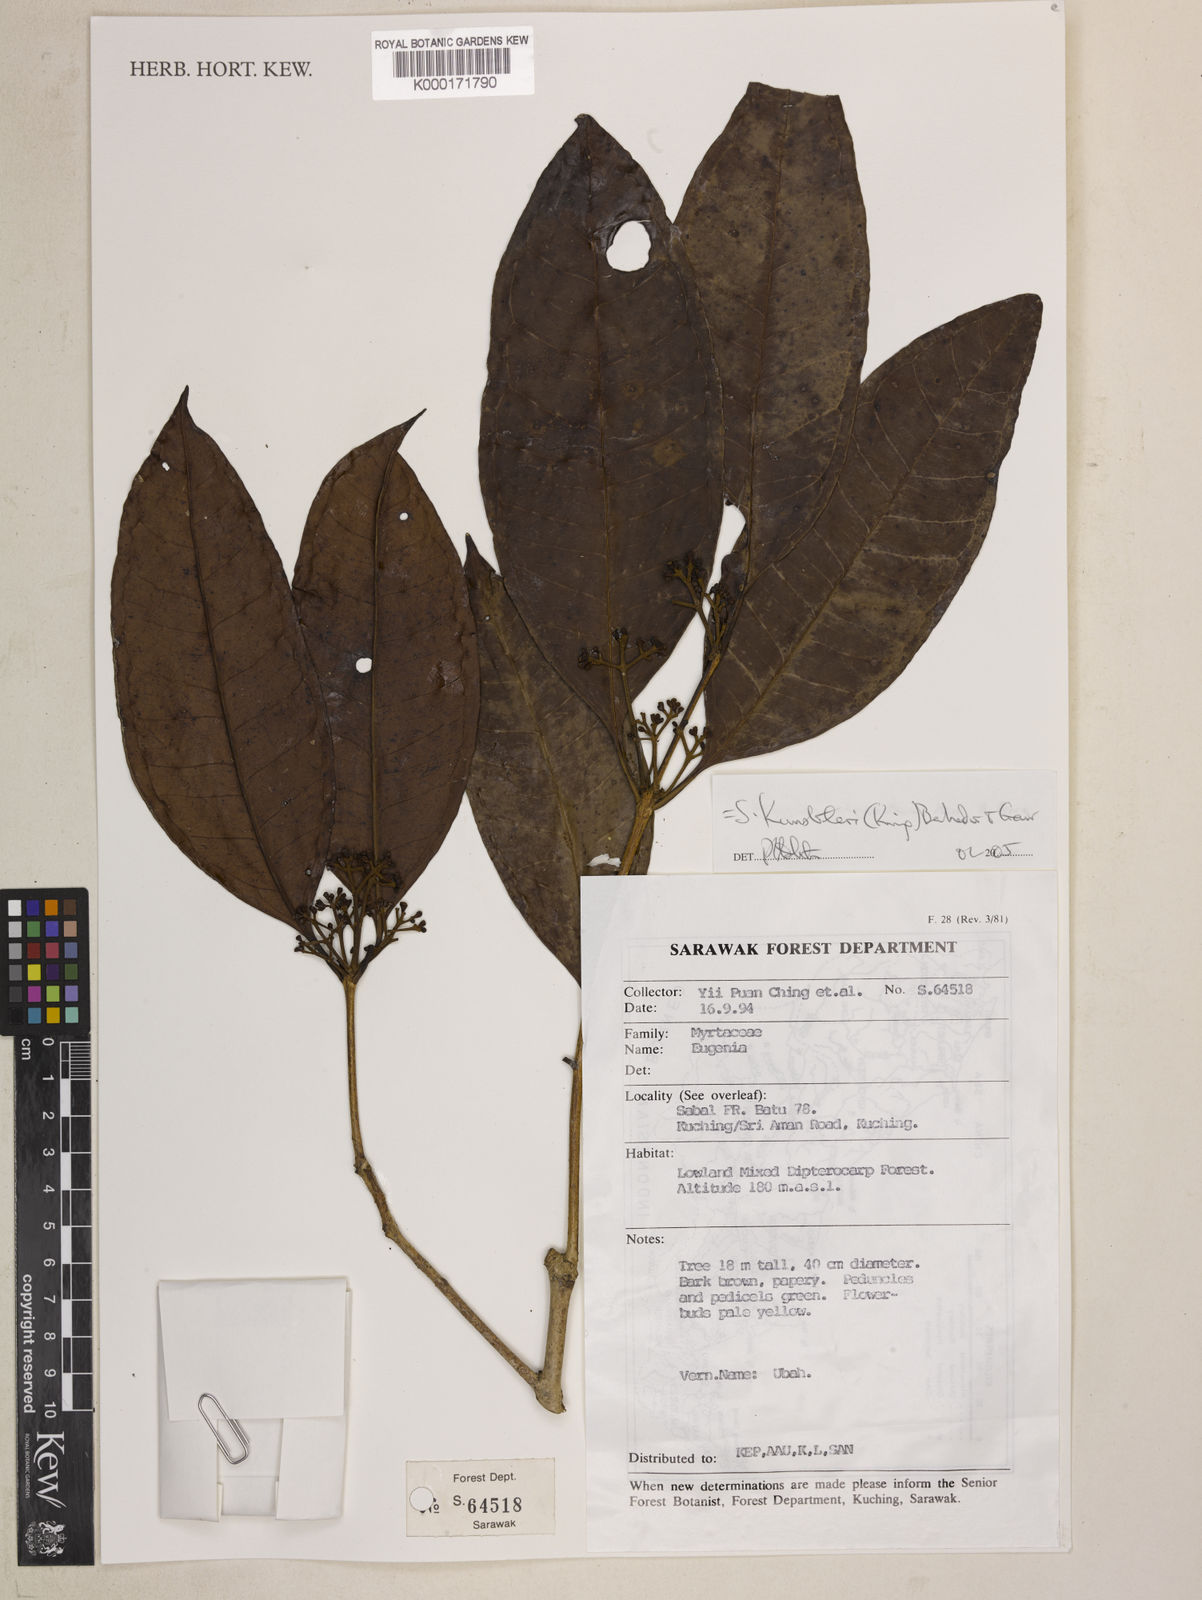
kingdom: Plantae
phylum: Tracheophyta
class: Magnoliopsida
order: Myrtales
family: Myrtaceae
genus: Syzygium
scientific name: Syzygium kunstleri
